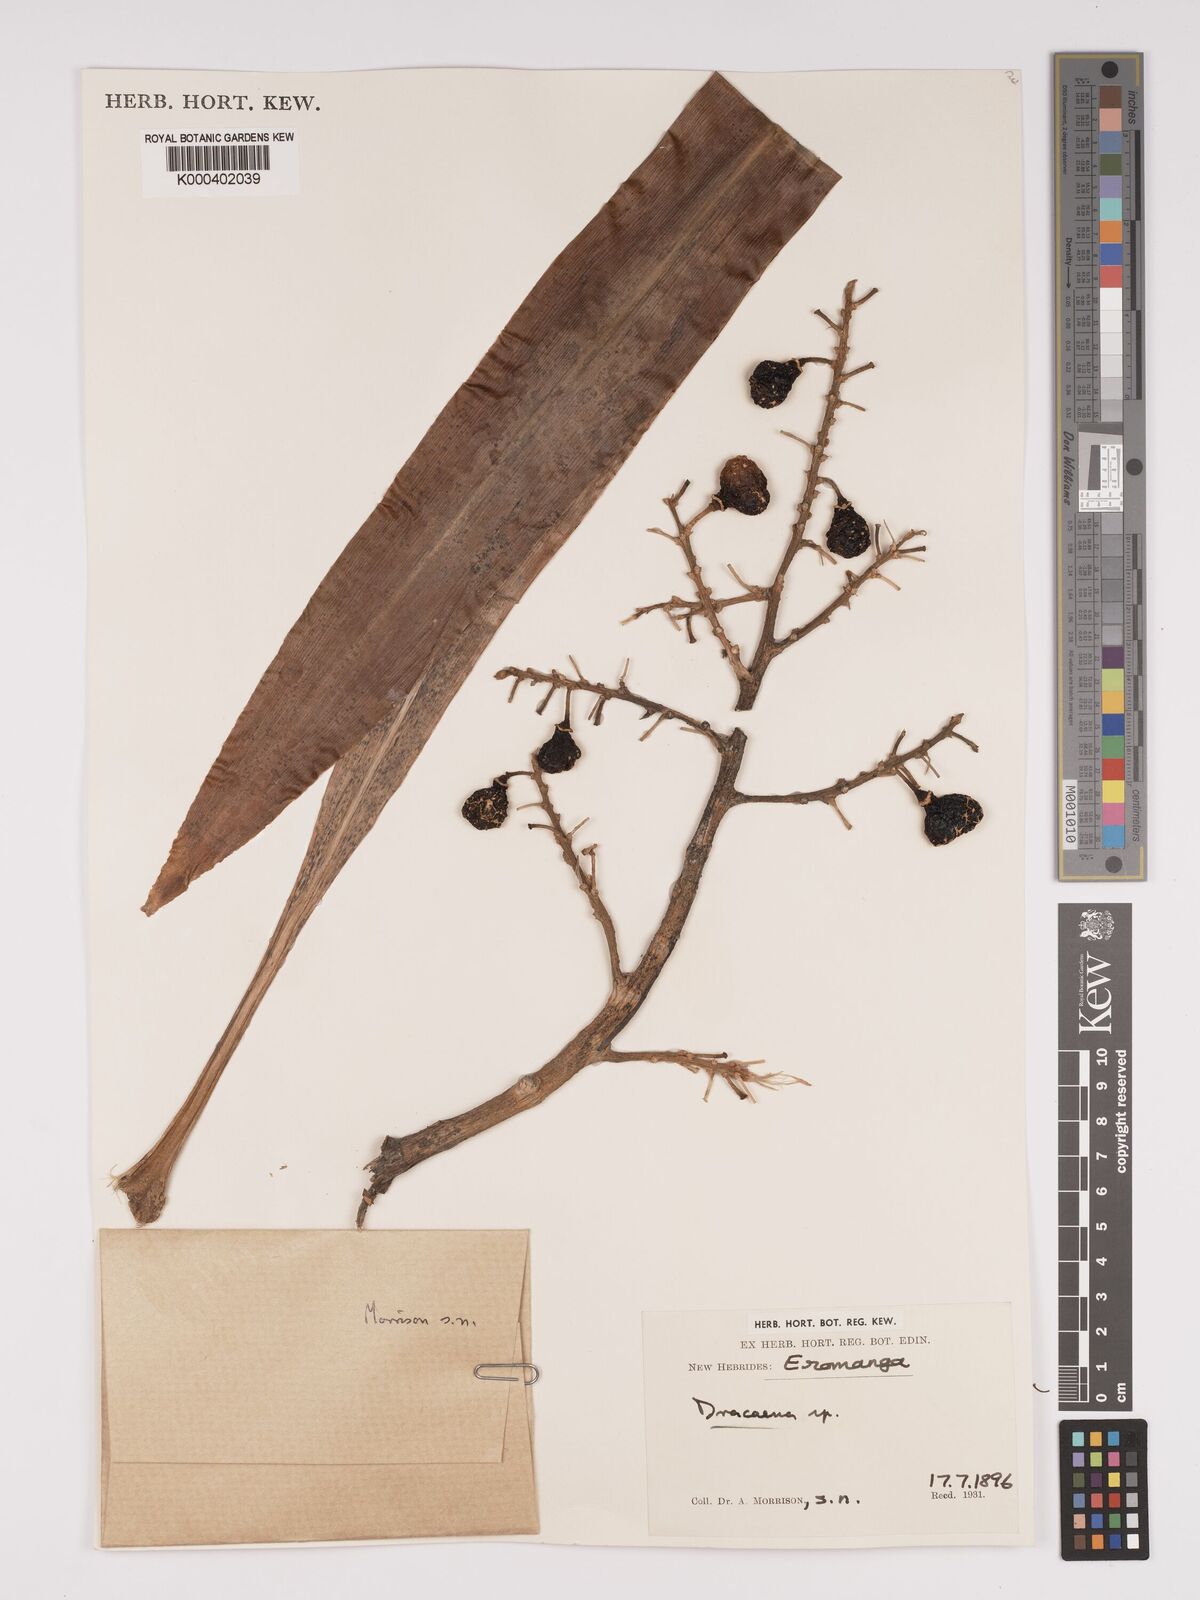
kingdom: Plantae
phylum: Tracheophyta
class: Liliopsida
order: Asparagales
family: Asparagaceae
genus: Dracaena
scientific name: Dracaena
